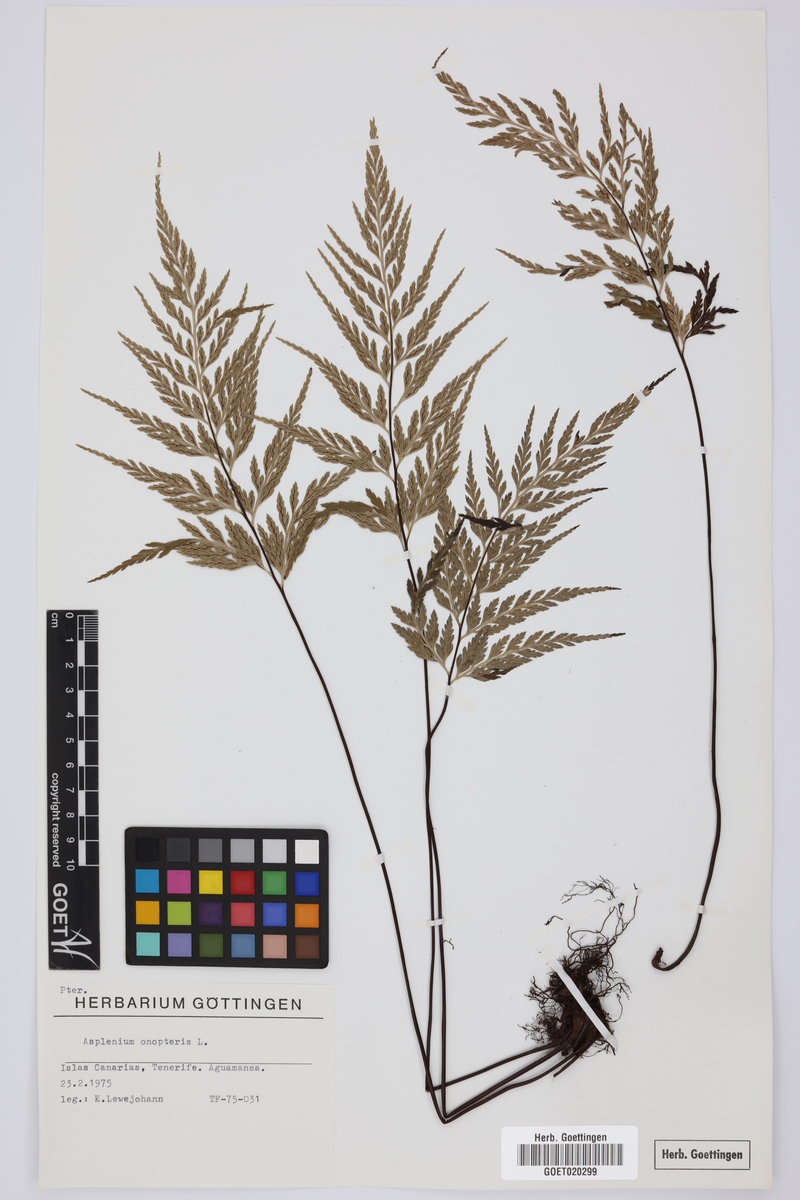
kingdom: Plantae
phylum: Tracheophyta
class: Polypodiopsida
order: Polypodiales
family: Aspleniaceae
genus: Asplenium
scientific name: Asplenium onopteris
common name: Irish spleenwort
